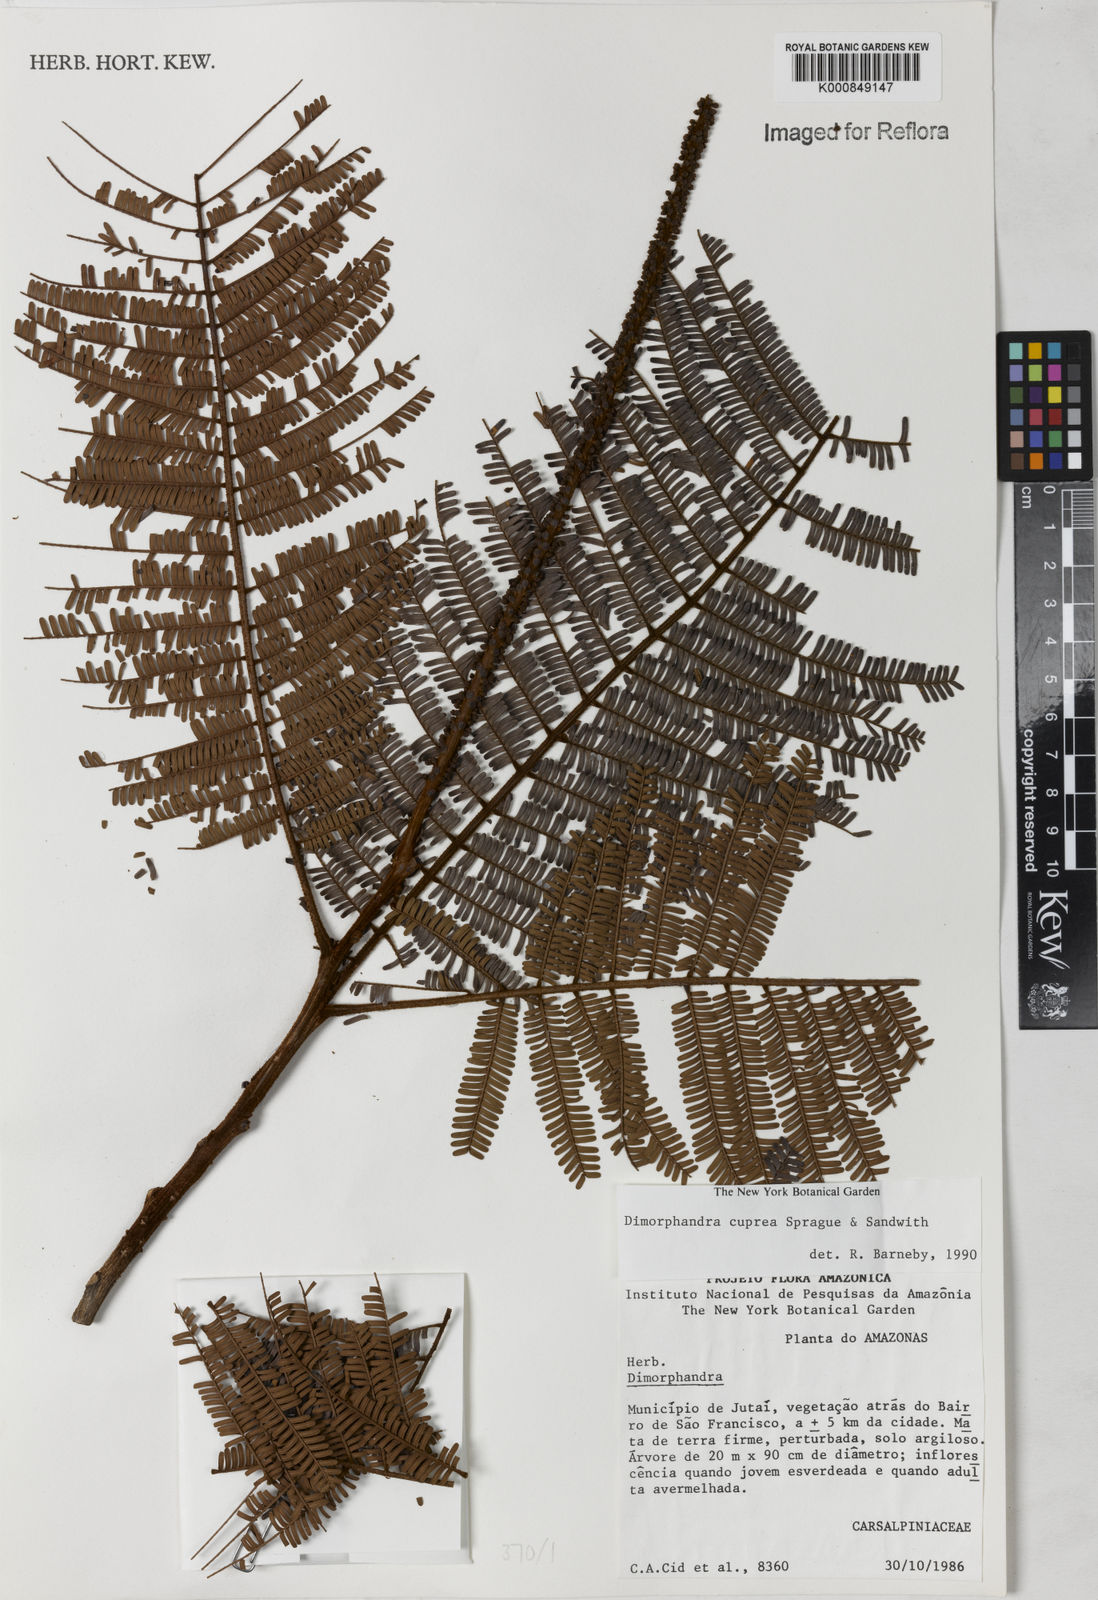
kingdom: Plantae
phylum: Tracheophyta
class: Magnoliopsida
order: Fabales
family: Fabaceae
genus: Dimorphandra
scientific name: Dimorphandra cuprea
